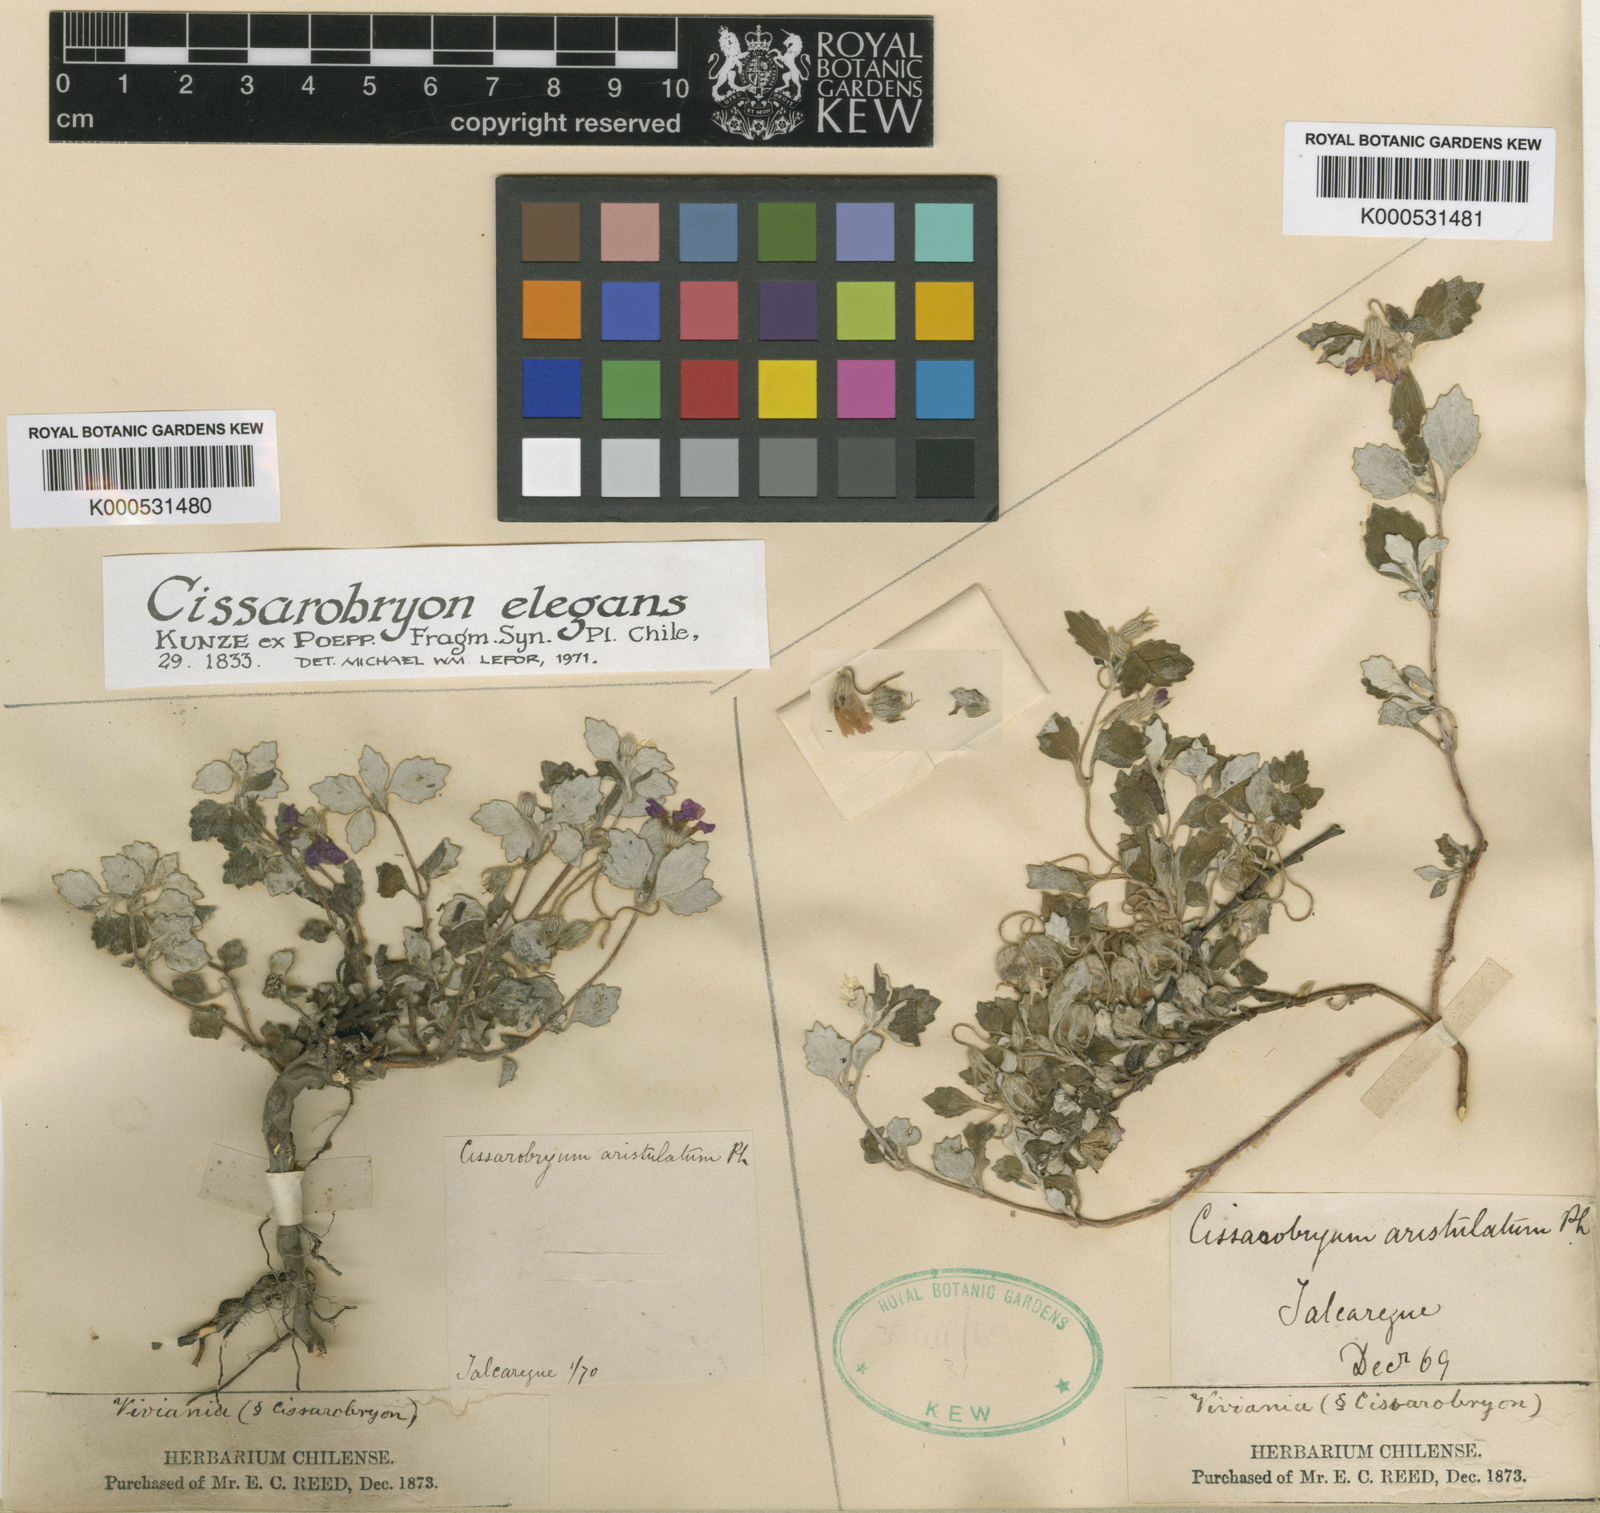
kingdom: Plantae
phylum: Tracheophyta
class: Magnoliopsida
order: Geraniales
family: Vivianiaceae
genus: Viviania
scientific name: Viviania
